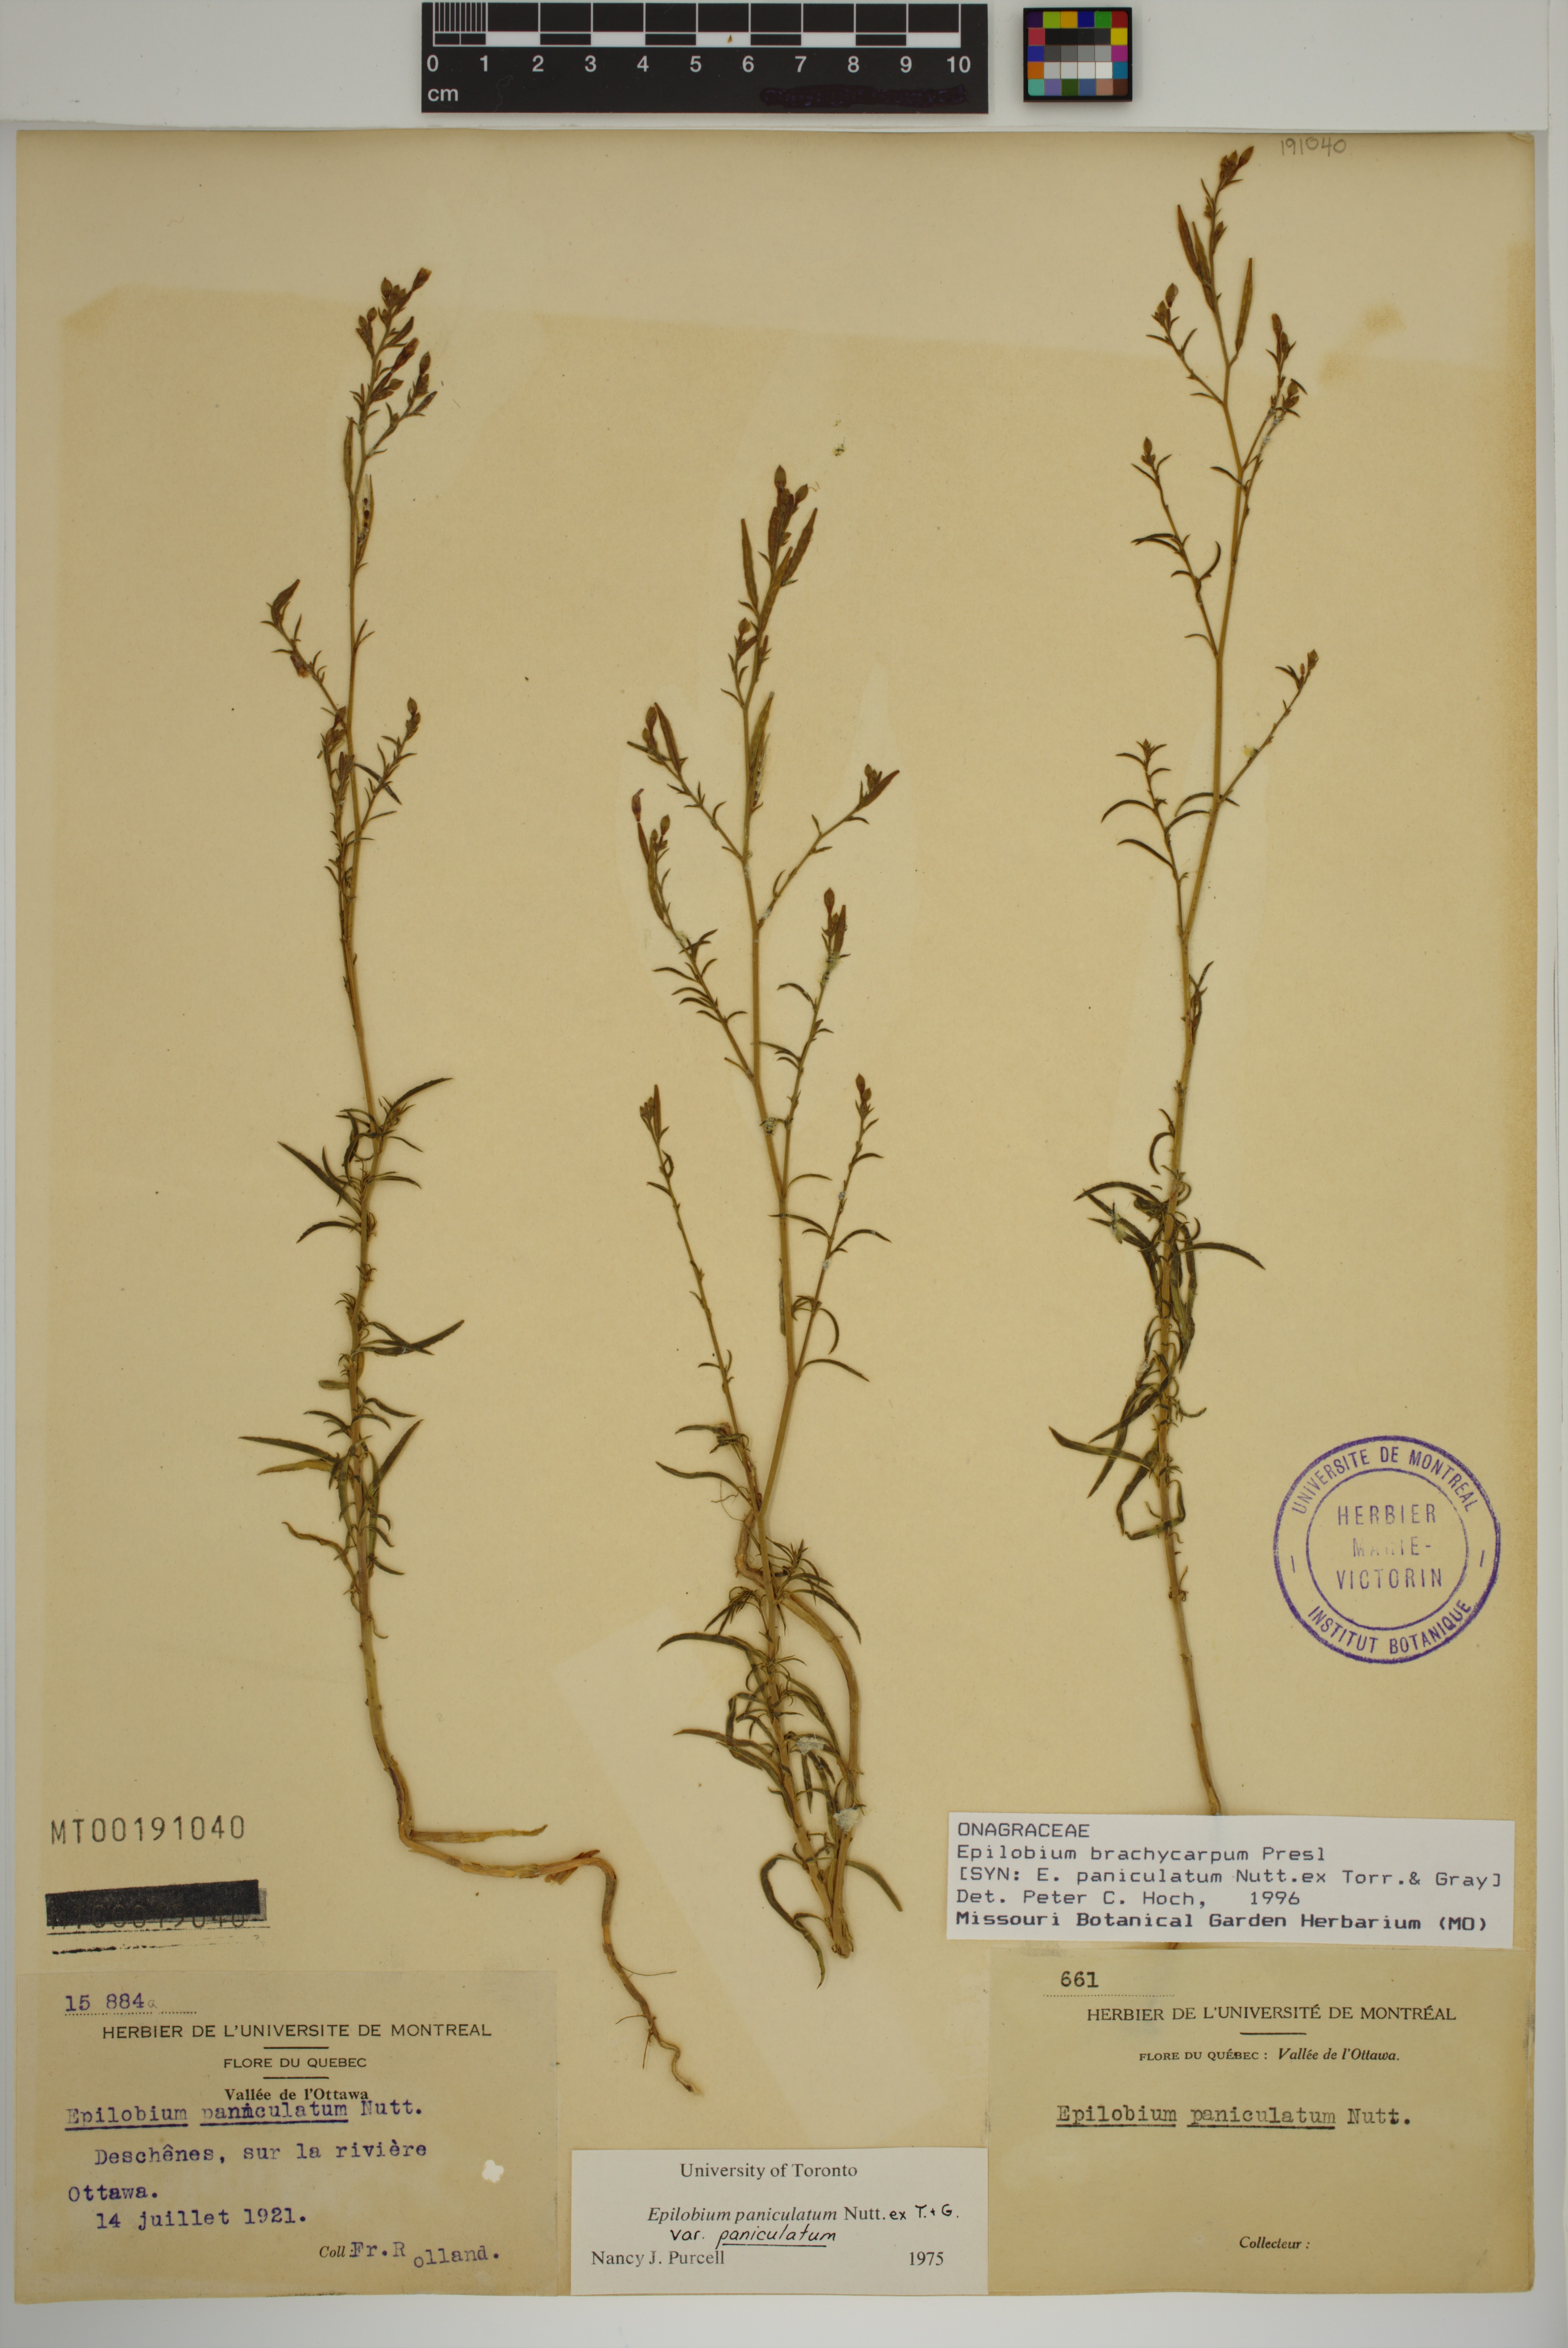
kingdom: Plantae
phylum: Tracheophyta
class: Magnoliopsida
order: Myrtales
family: Onagraceae
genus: Epilobium
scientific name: Epilobium brachycarpum
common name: Annual willowherb
